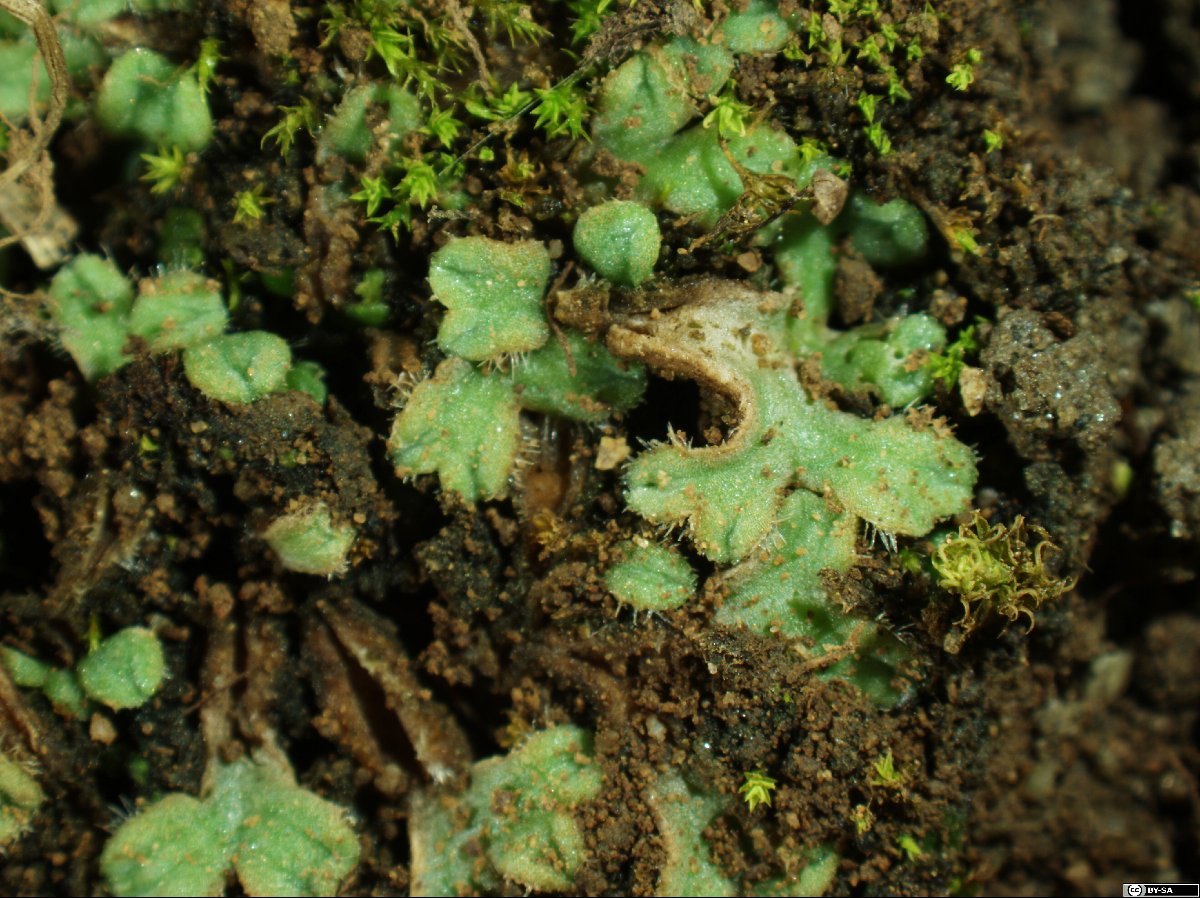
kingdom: Plantae
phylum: Marchantiophyta
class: Marchantiopsida
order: Marchantiales
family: Ricciaceae
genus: Riccia
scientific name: Riccia michelii
